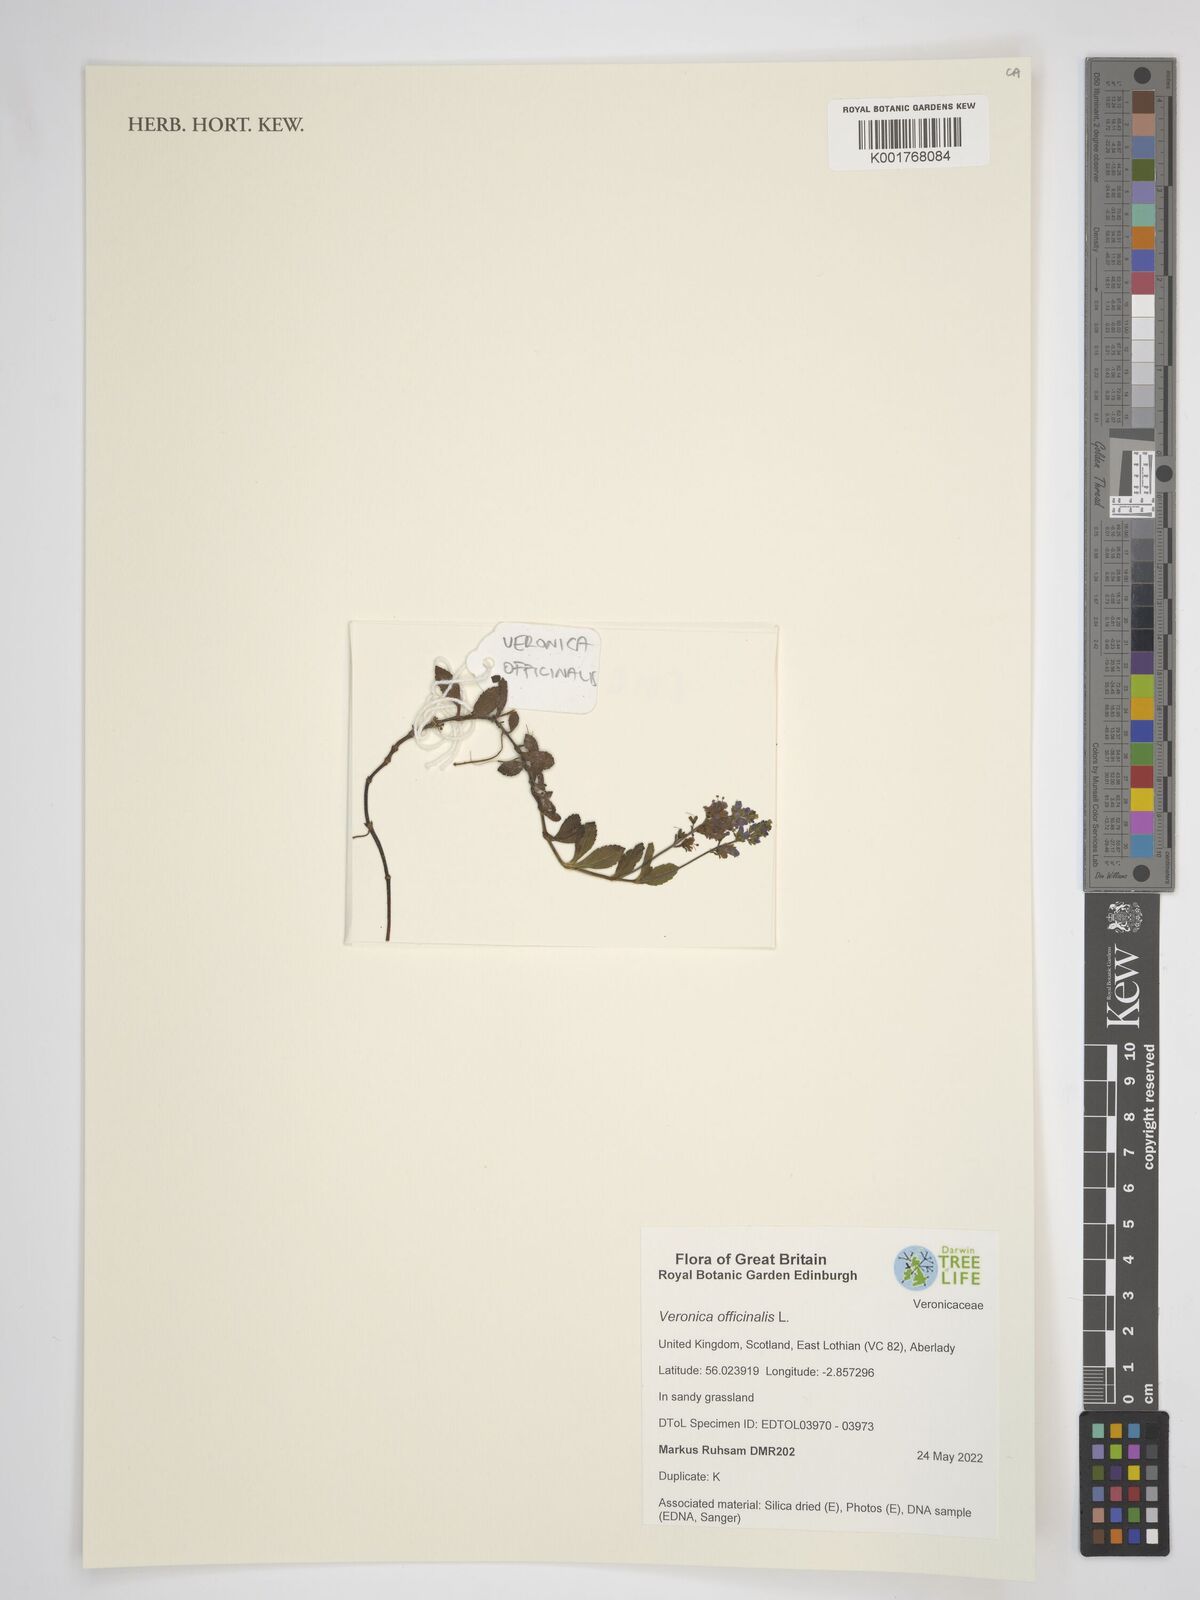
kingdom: Plantae
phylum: Tracheophyta
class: Magnoliopsida
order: Lamiales
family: Plantaginaceae
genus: Veronica
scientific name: Veronica officinalis
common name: Common speedwell
